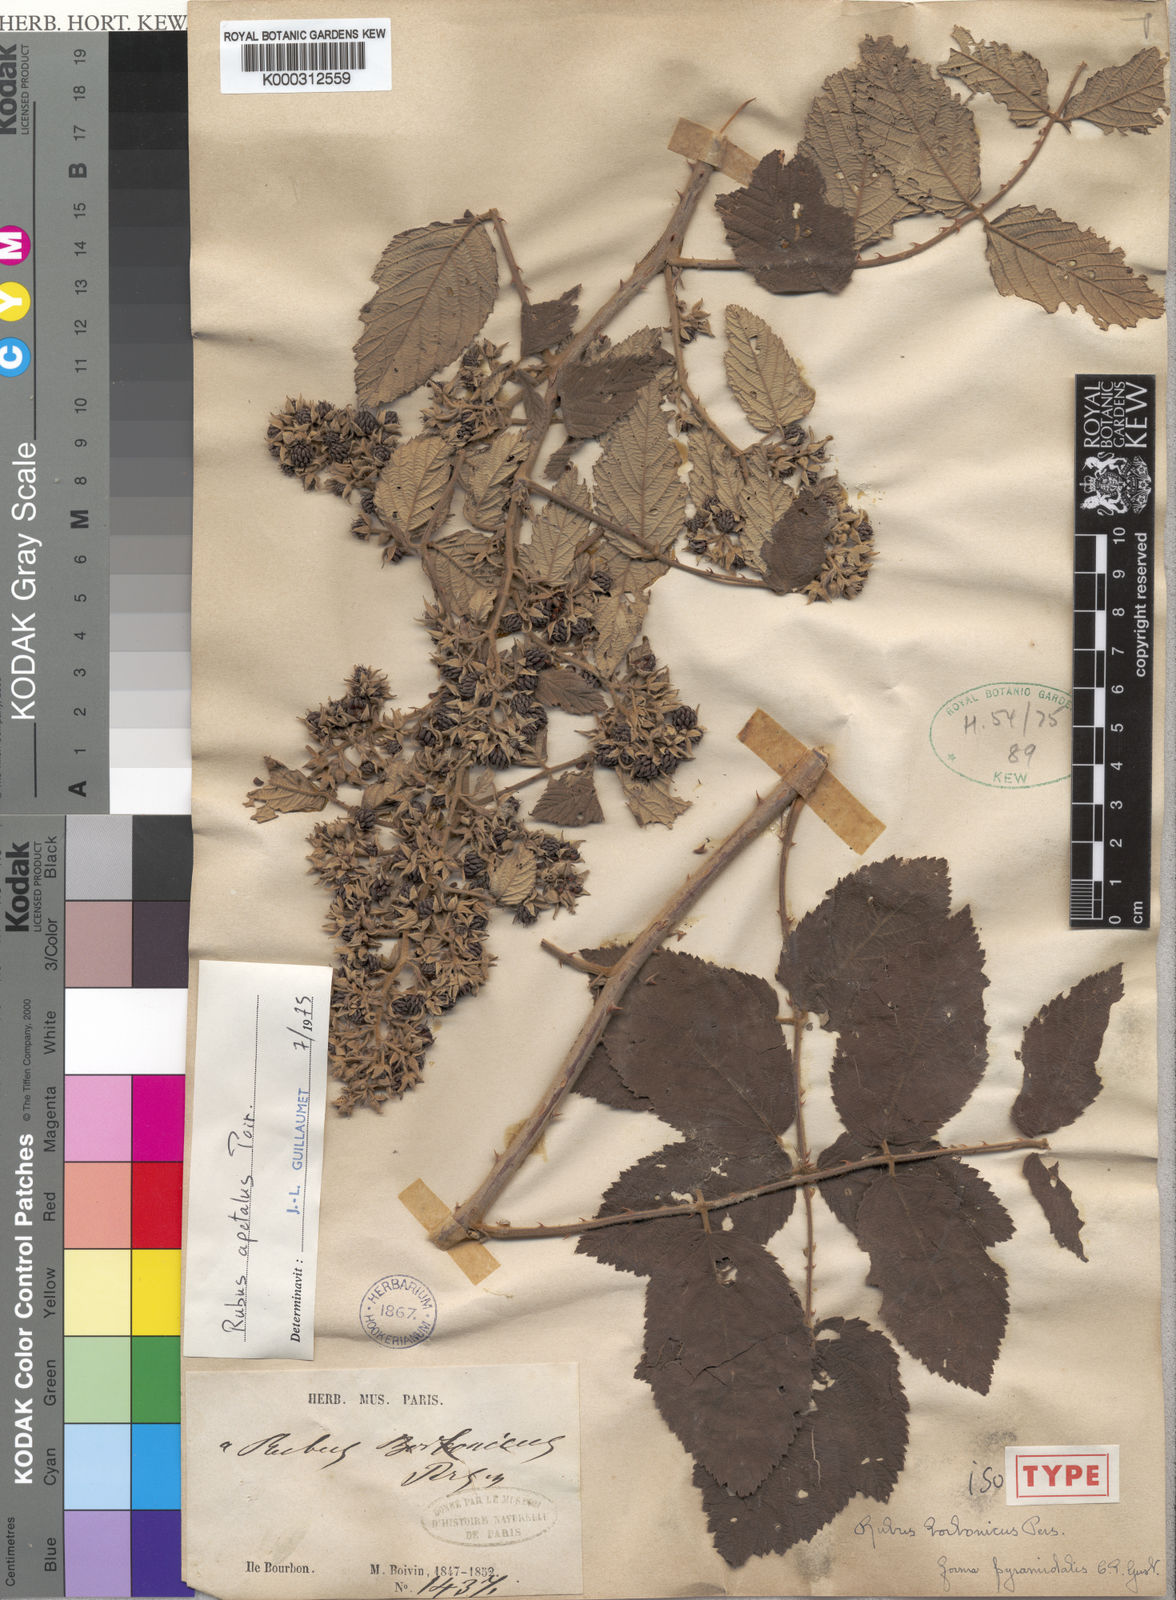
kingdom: Plantae
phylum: Tracheophyta
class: Magnoliopsida
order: Rosales
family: Rosaceae
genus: Rubus
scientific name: Rubus apetalus
